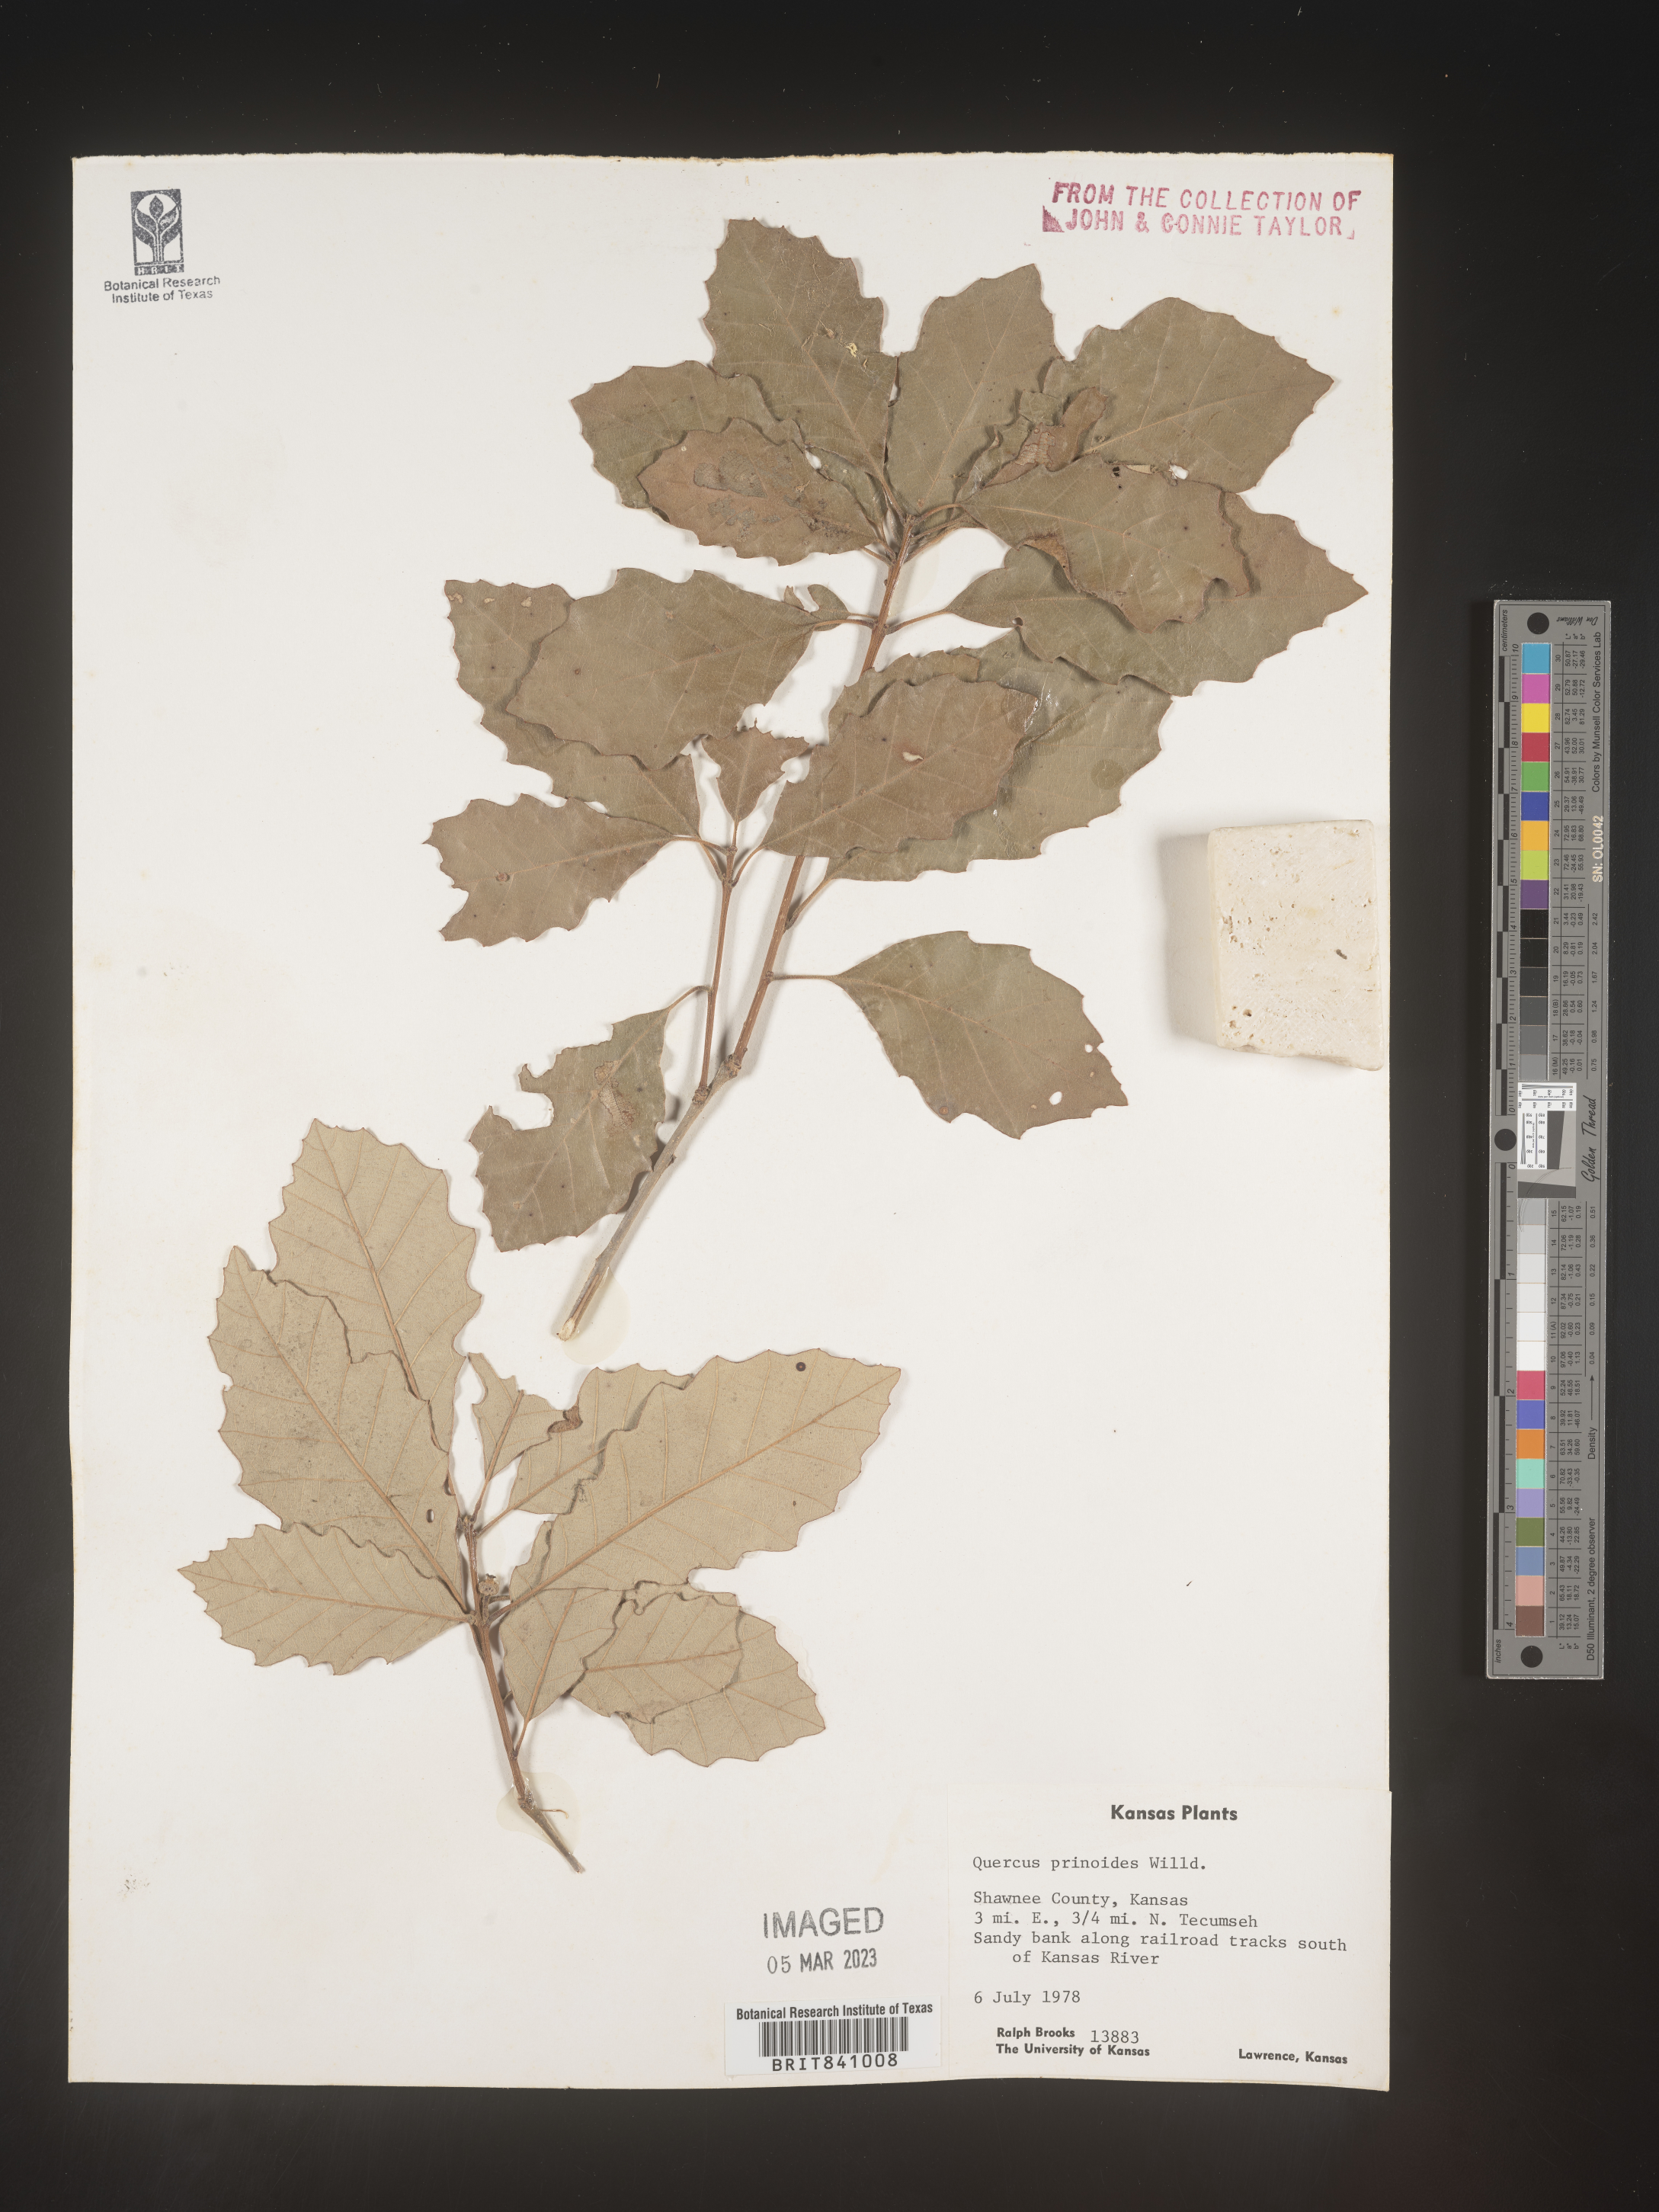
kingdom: Plantae
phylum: Tracheophyta
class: Magnoliopsida
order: Fagales
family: Fagaceae
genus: Quercus
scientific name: Quercus prinoides
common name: Dwarf chinkapin oak
